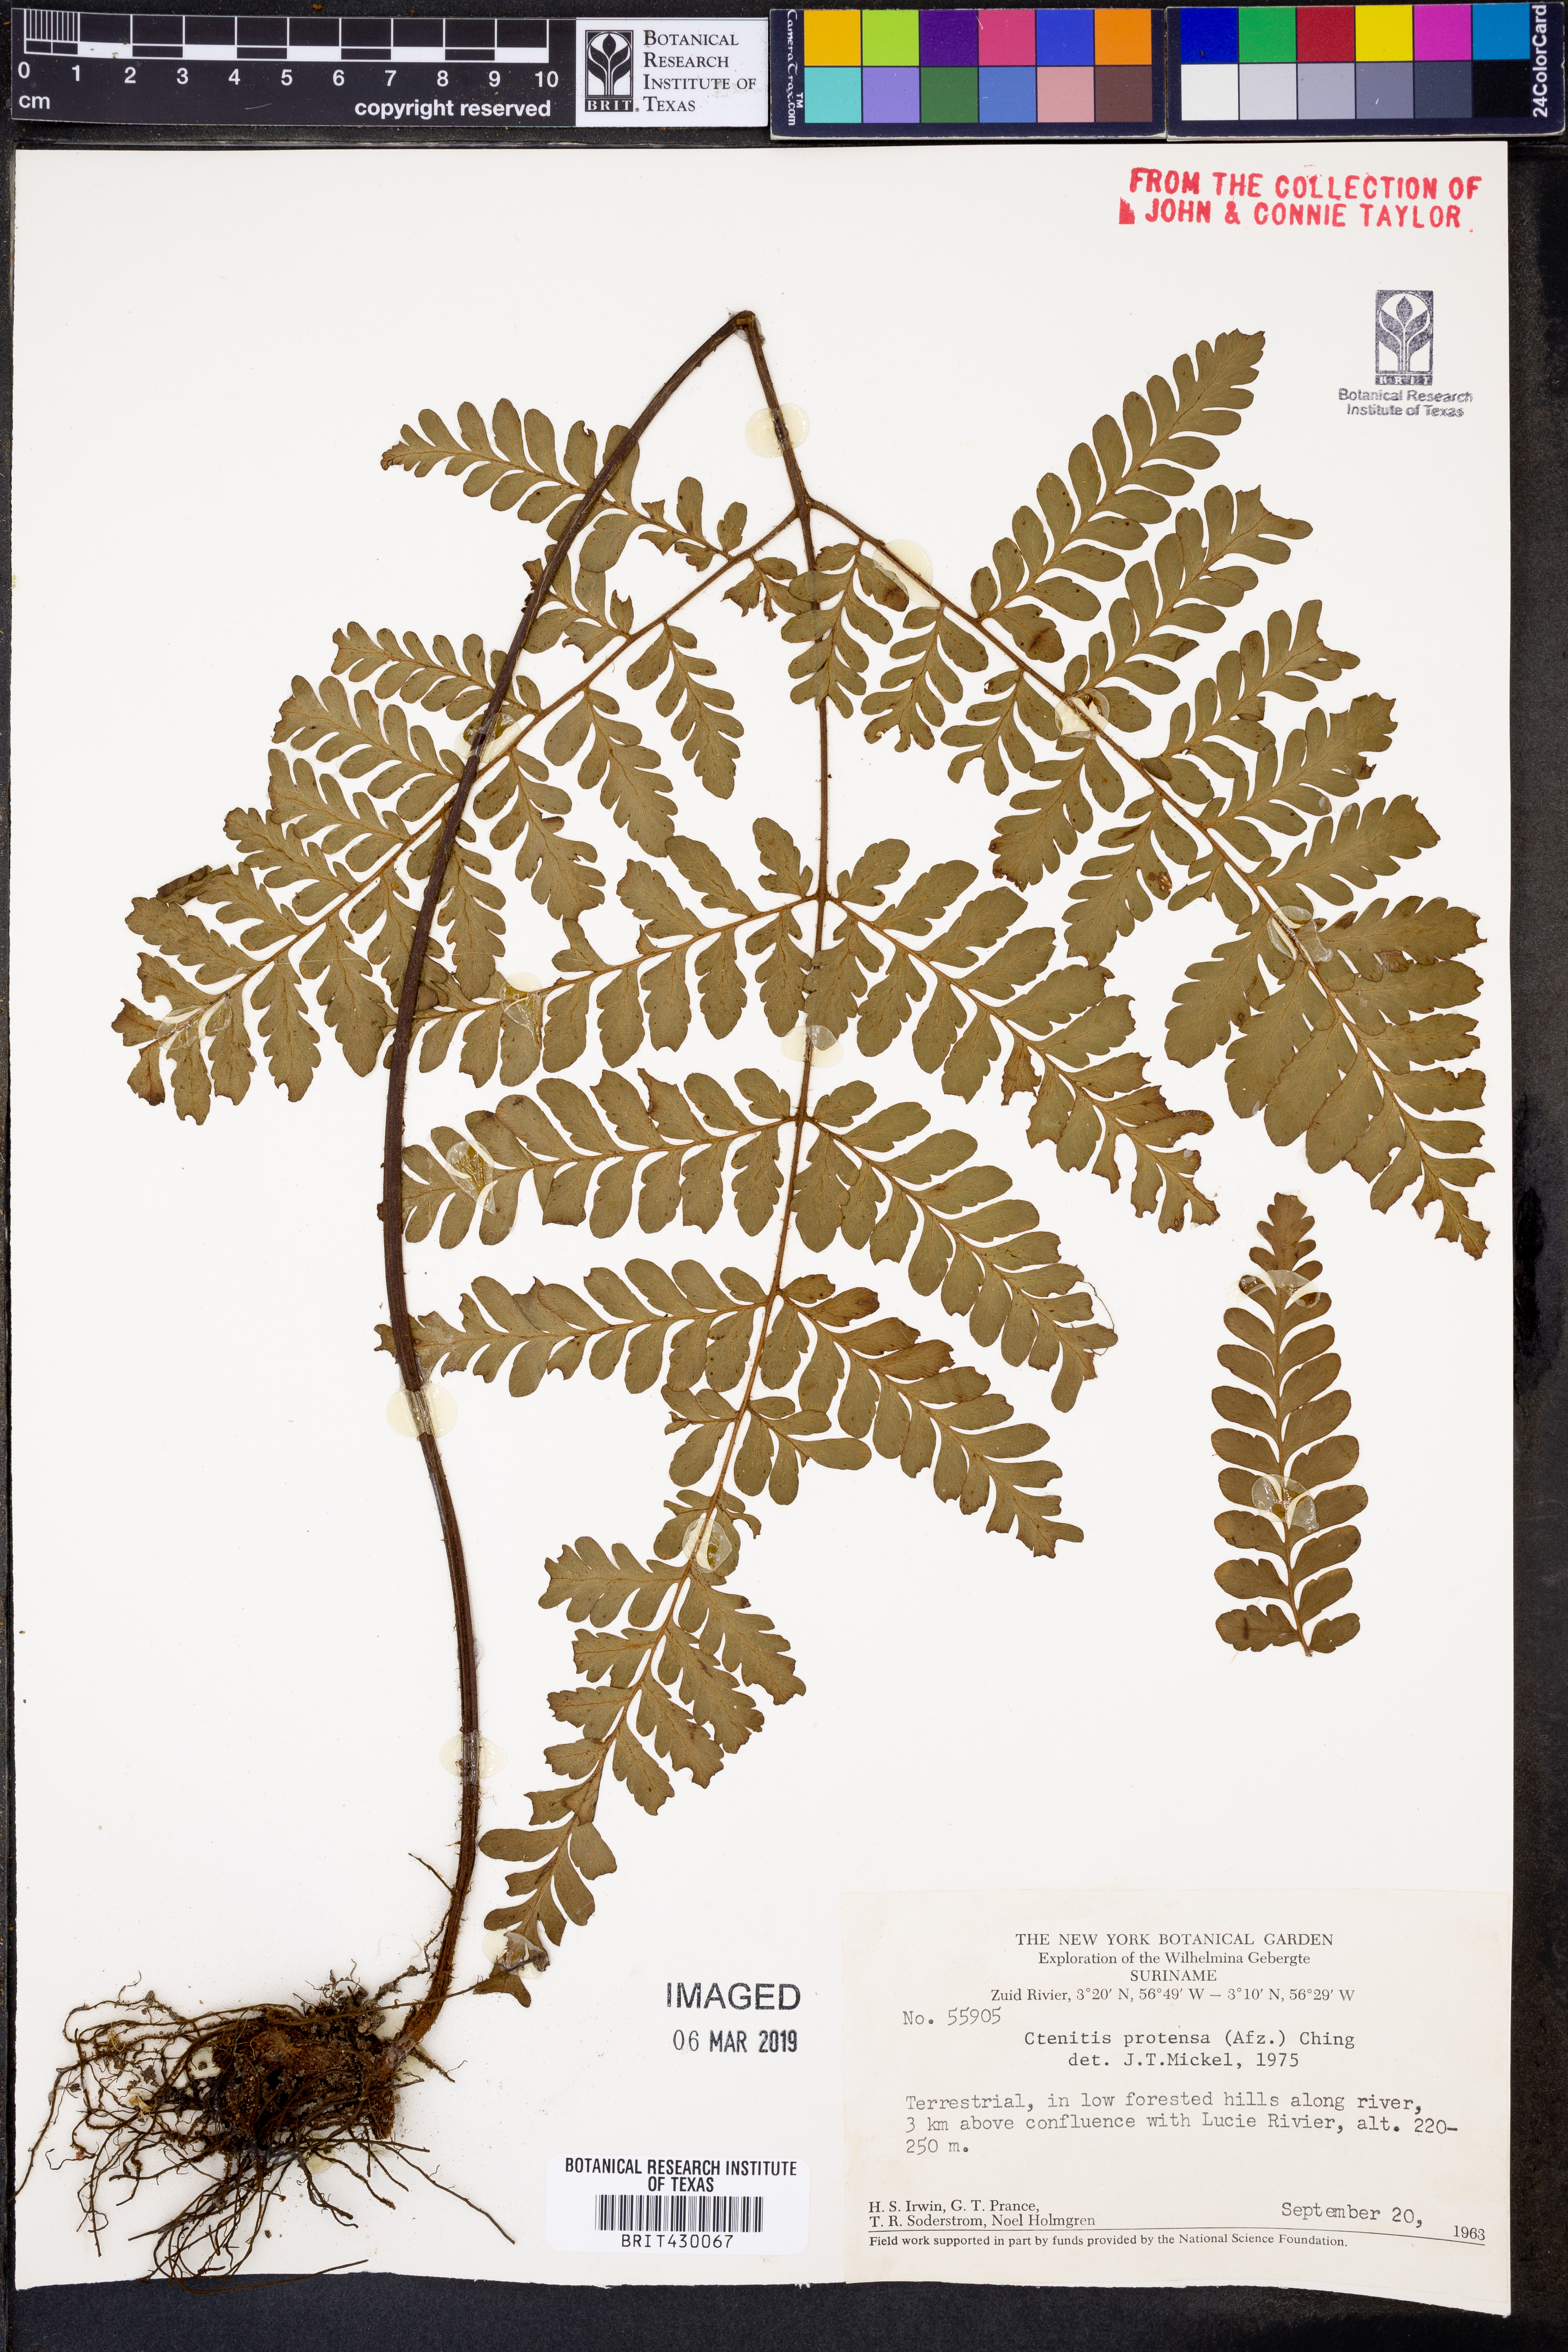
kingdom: Plantae
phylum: Tracheophyta
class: Polypodiopsida
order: Polypodiales
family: Tectariaceae
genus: Triplophyllum
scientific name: Triplophyllum protensum
